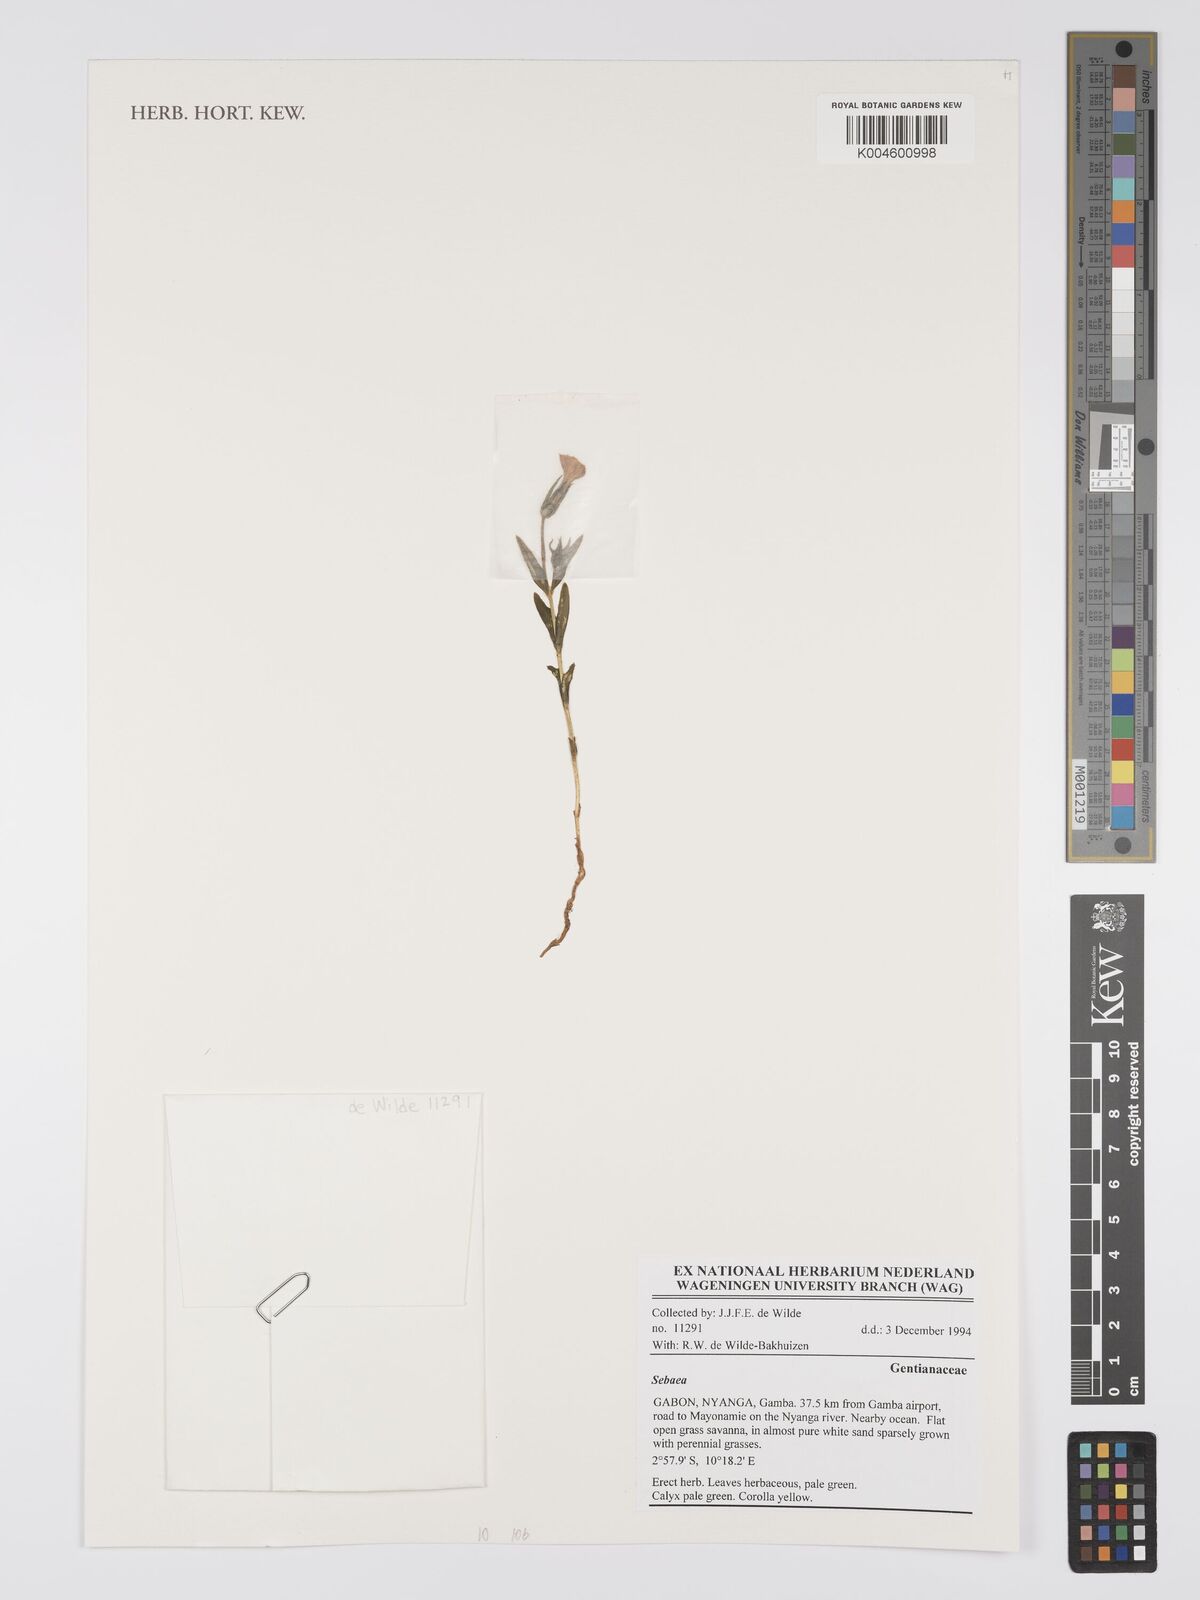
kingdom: Plantae
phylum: Tracheophyta
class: Magnoliopsida
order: Gentianales
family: Gentianaceae
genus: Sebaea
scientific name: Sebaea
